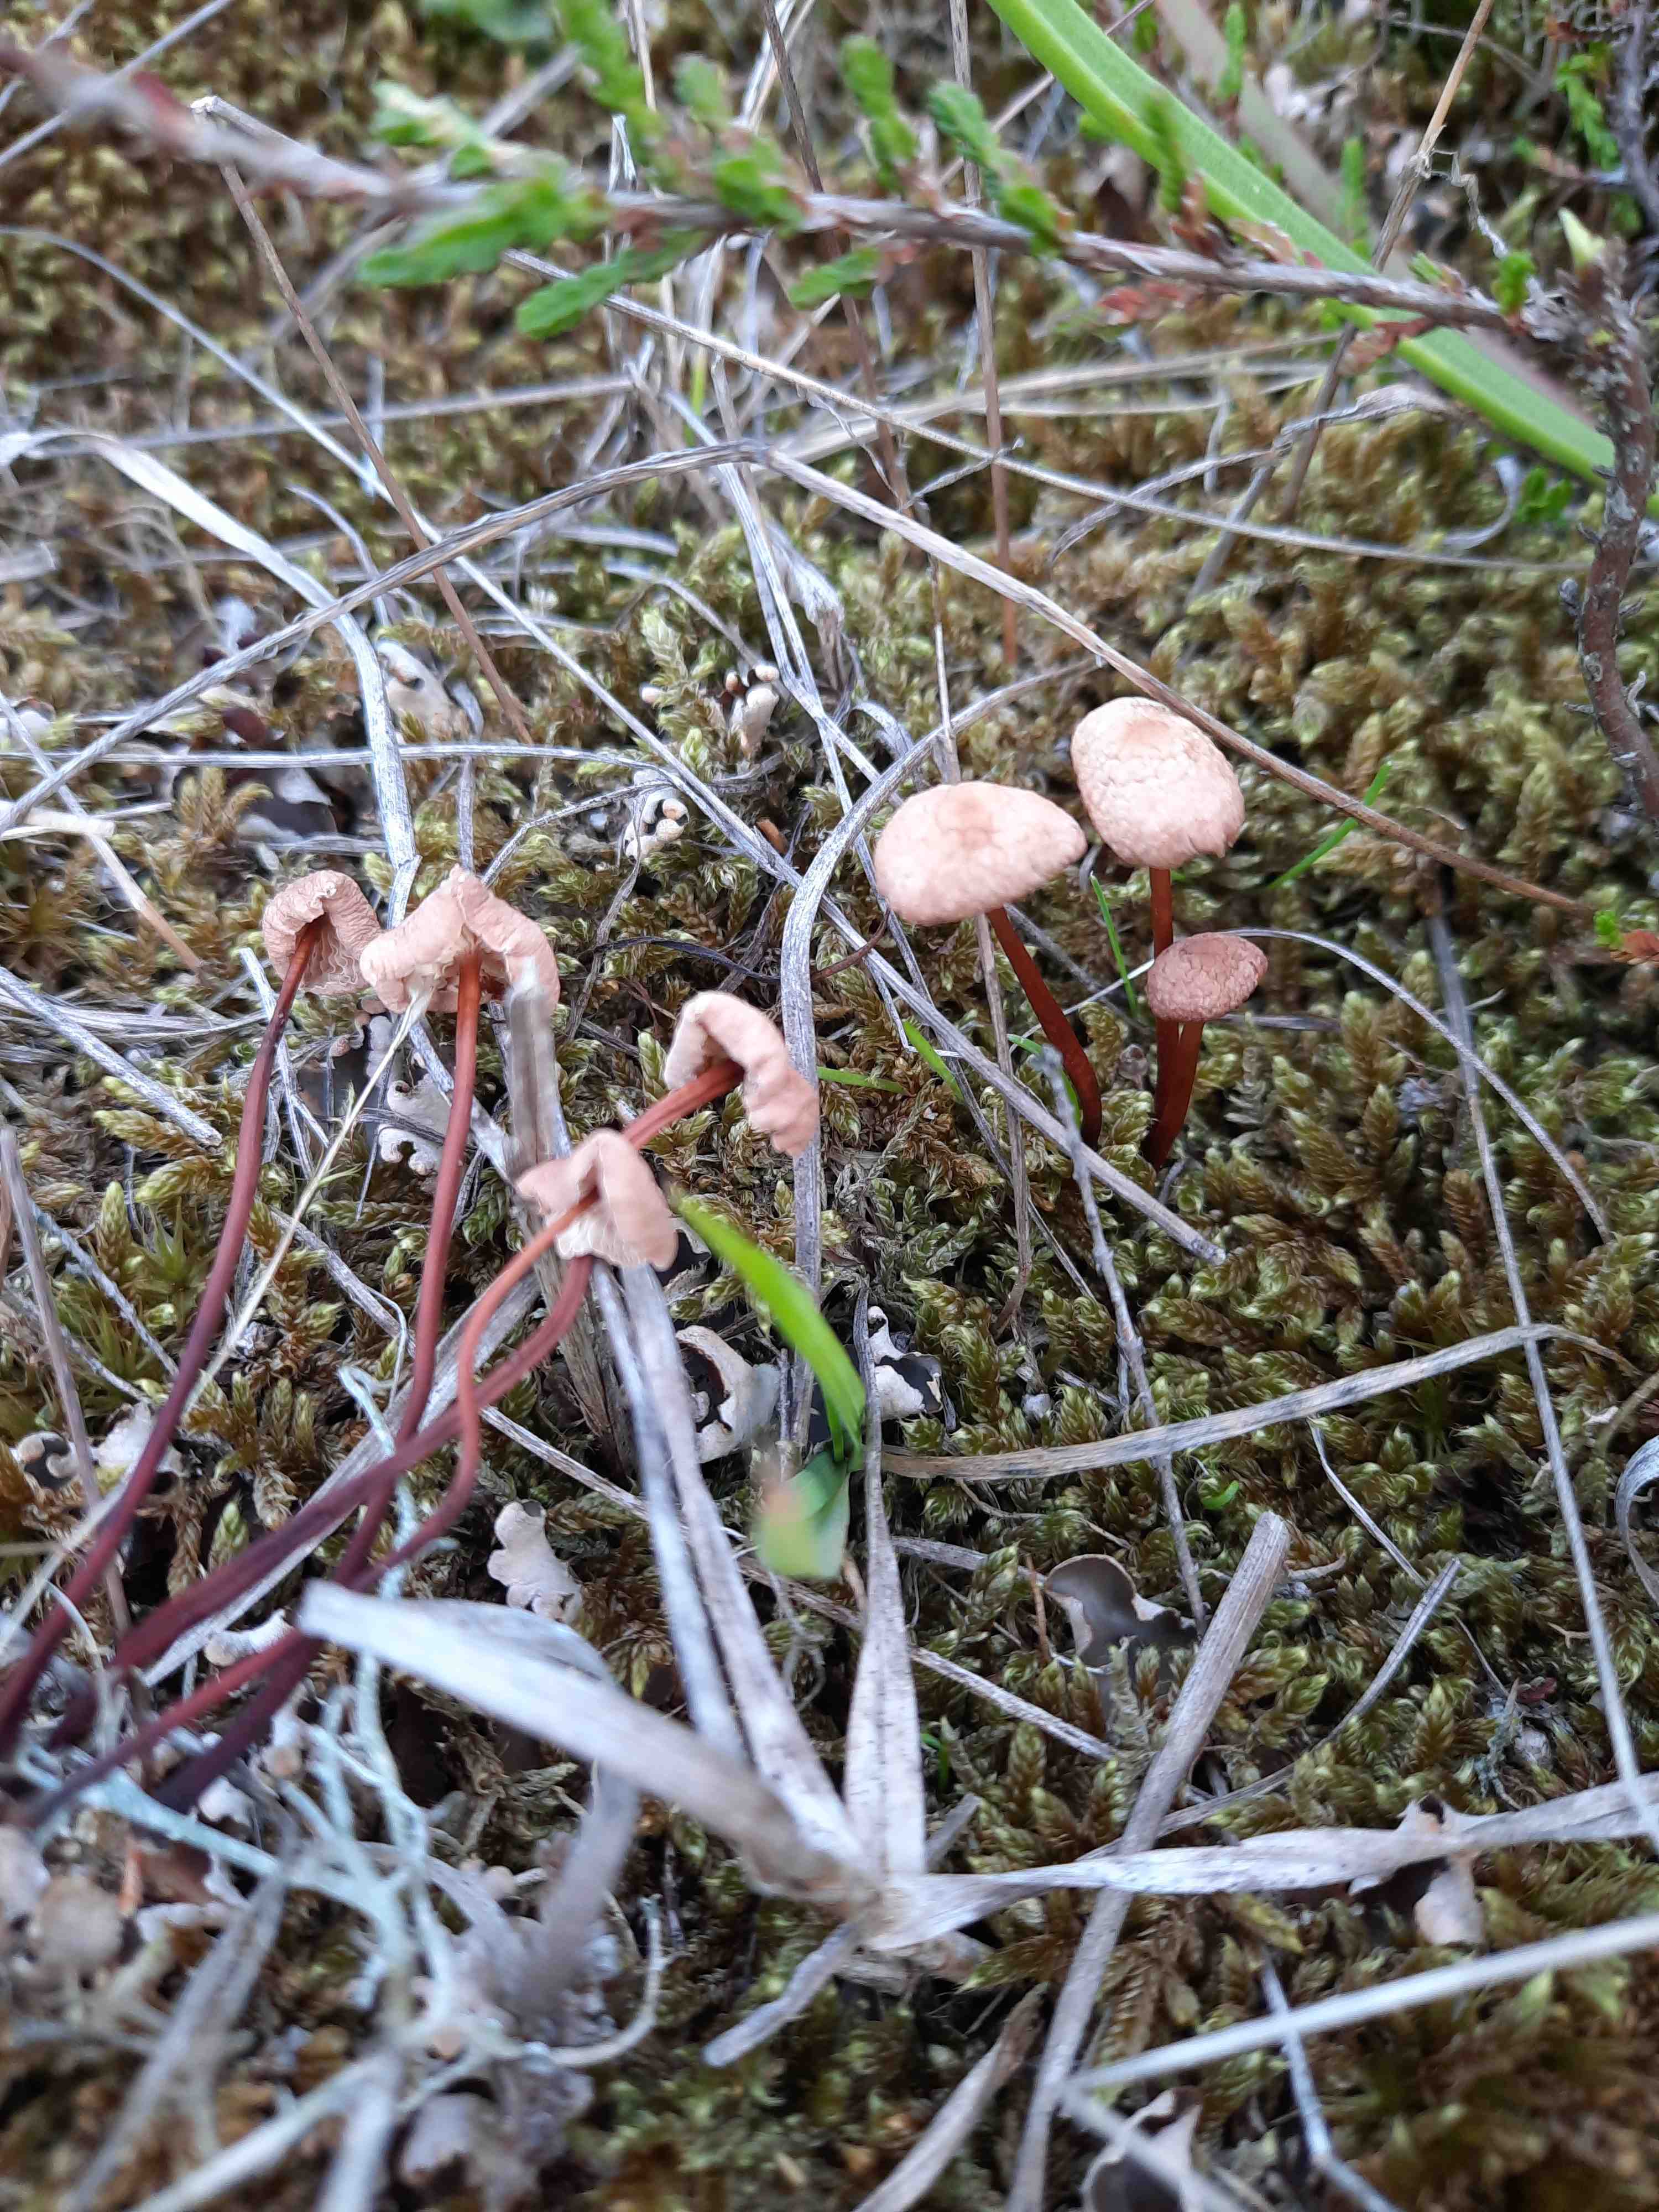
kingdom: Fungi
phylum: Basidiomycota
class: Agaricomycetes
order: Agaricales
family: Omphalotaceae
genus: Mycetinis
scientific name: Mycetinis scorodonius
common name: lille løghat
